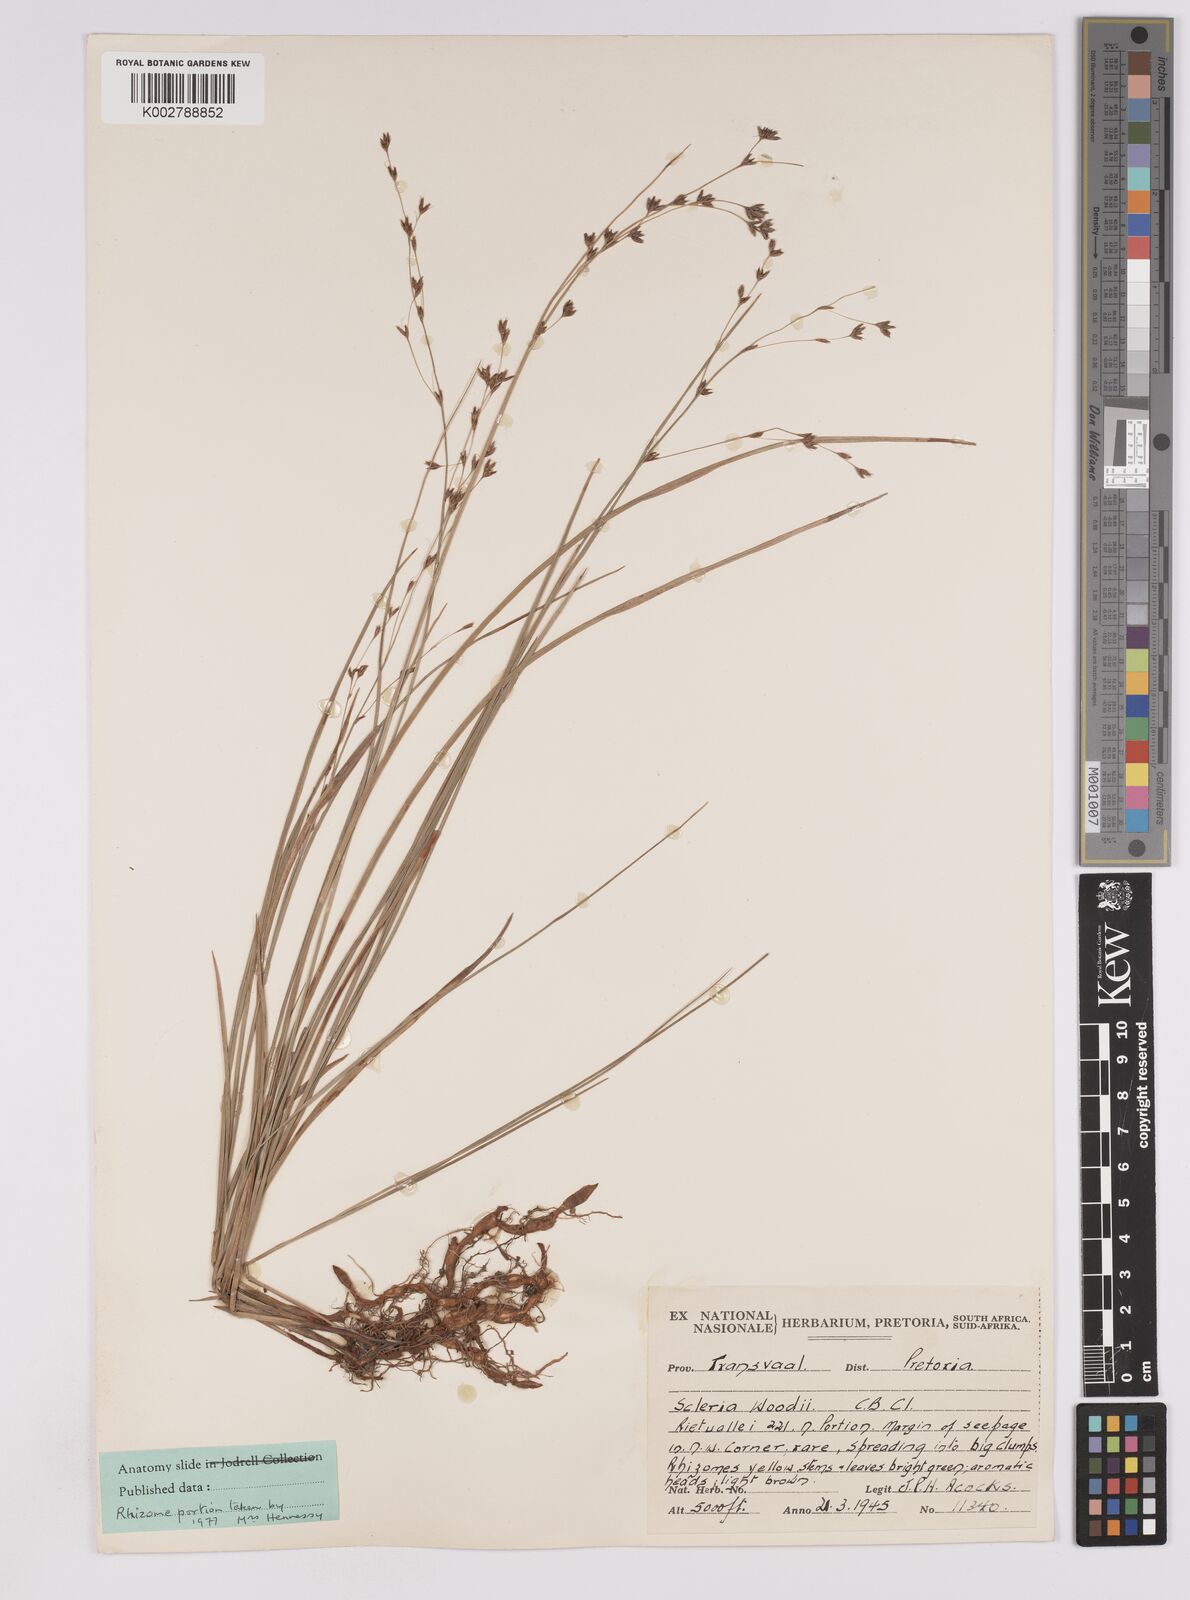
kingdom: Plantae
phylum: Tracheophyta
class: Liliopsida
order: Poales
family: Cyperaceae
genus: Scleria
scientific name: Scleria woodii
